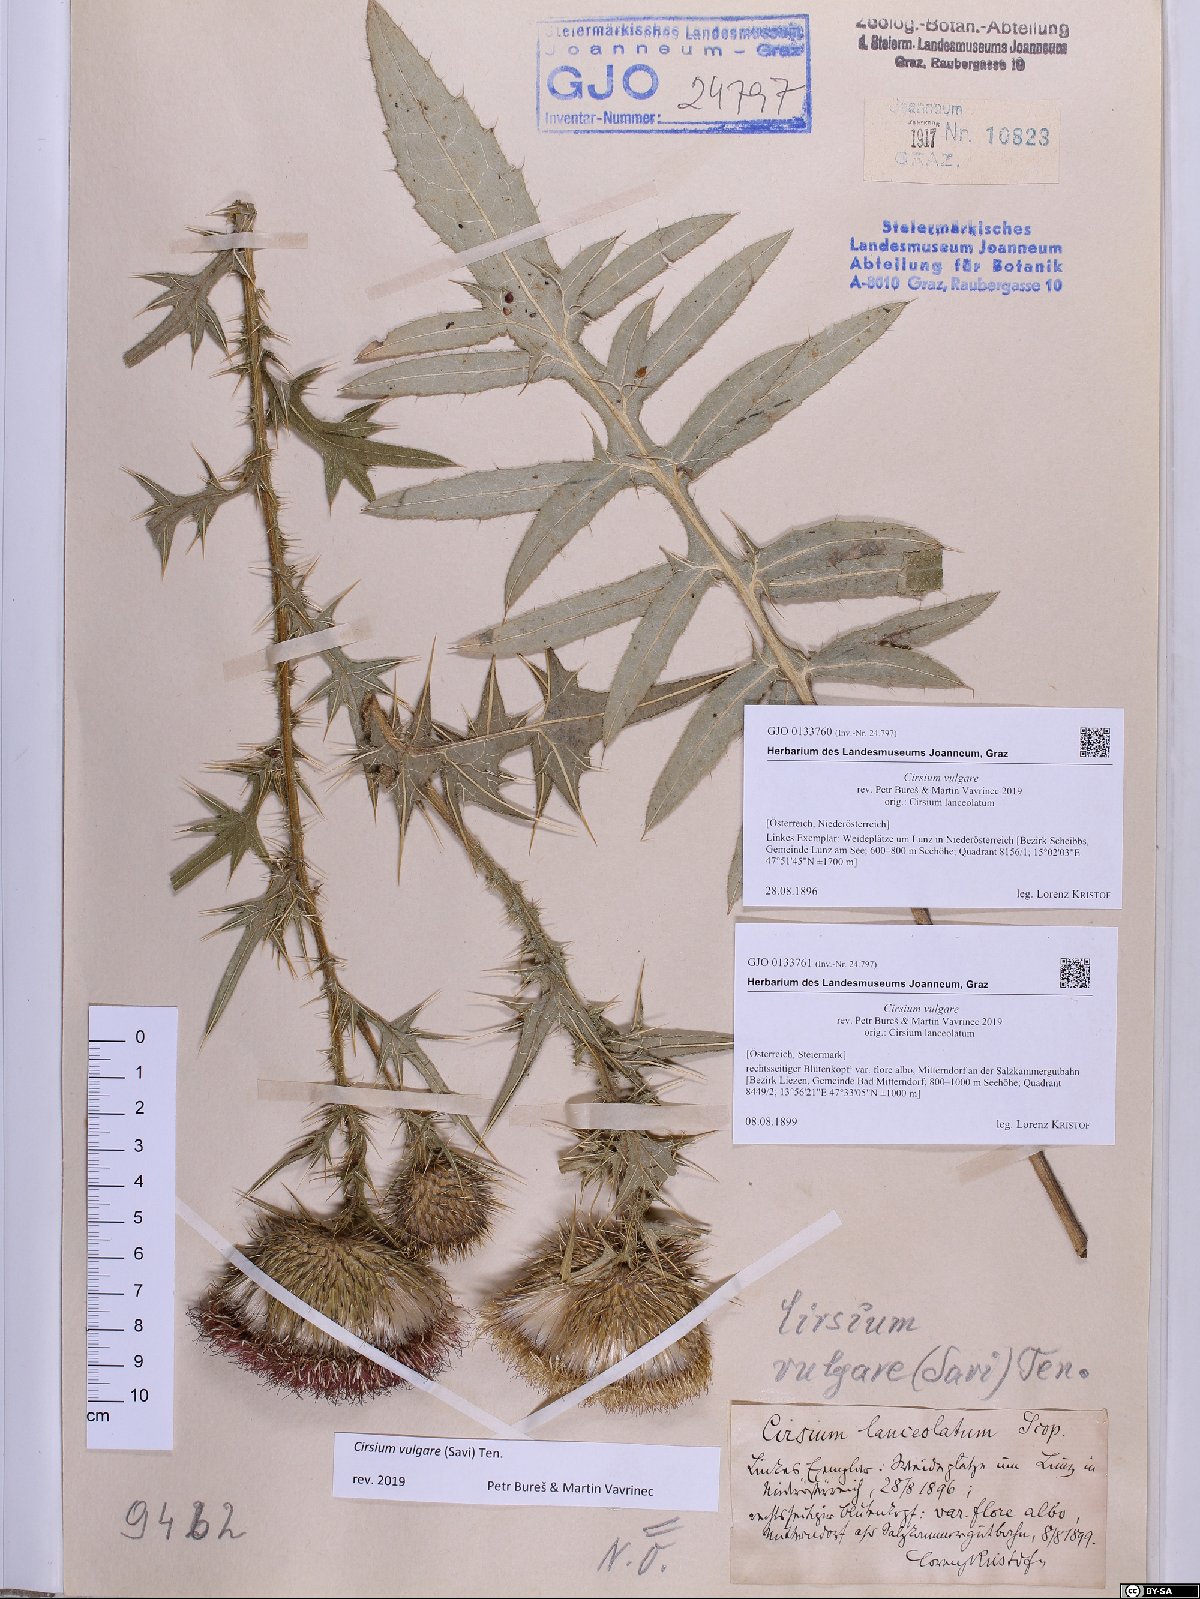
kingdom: Plantae
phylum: Tracheophyta
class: Magnoliopsida
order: Asterales
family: Asteraceae
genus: Cirsium
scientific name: Cirsium vulgare
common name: Bull thistle
